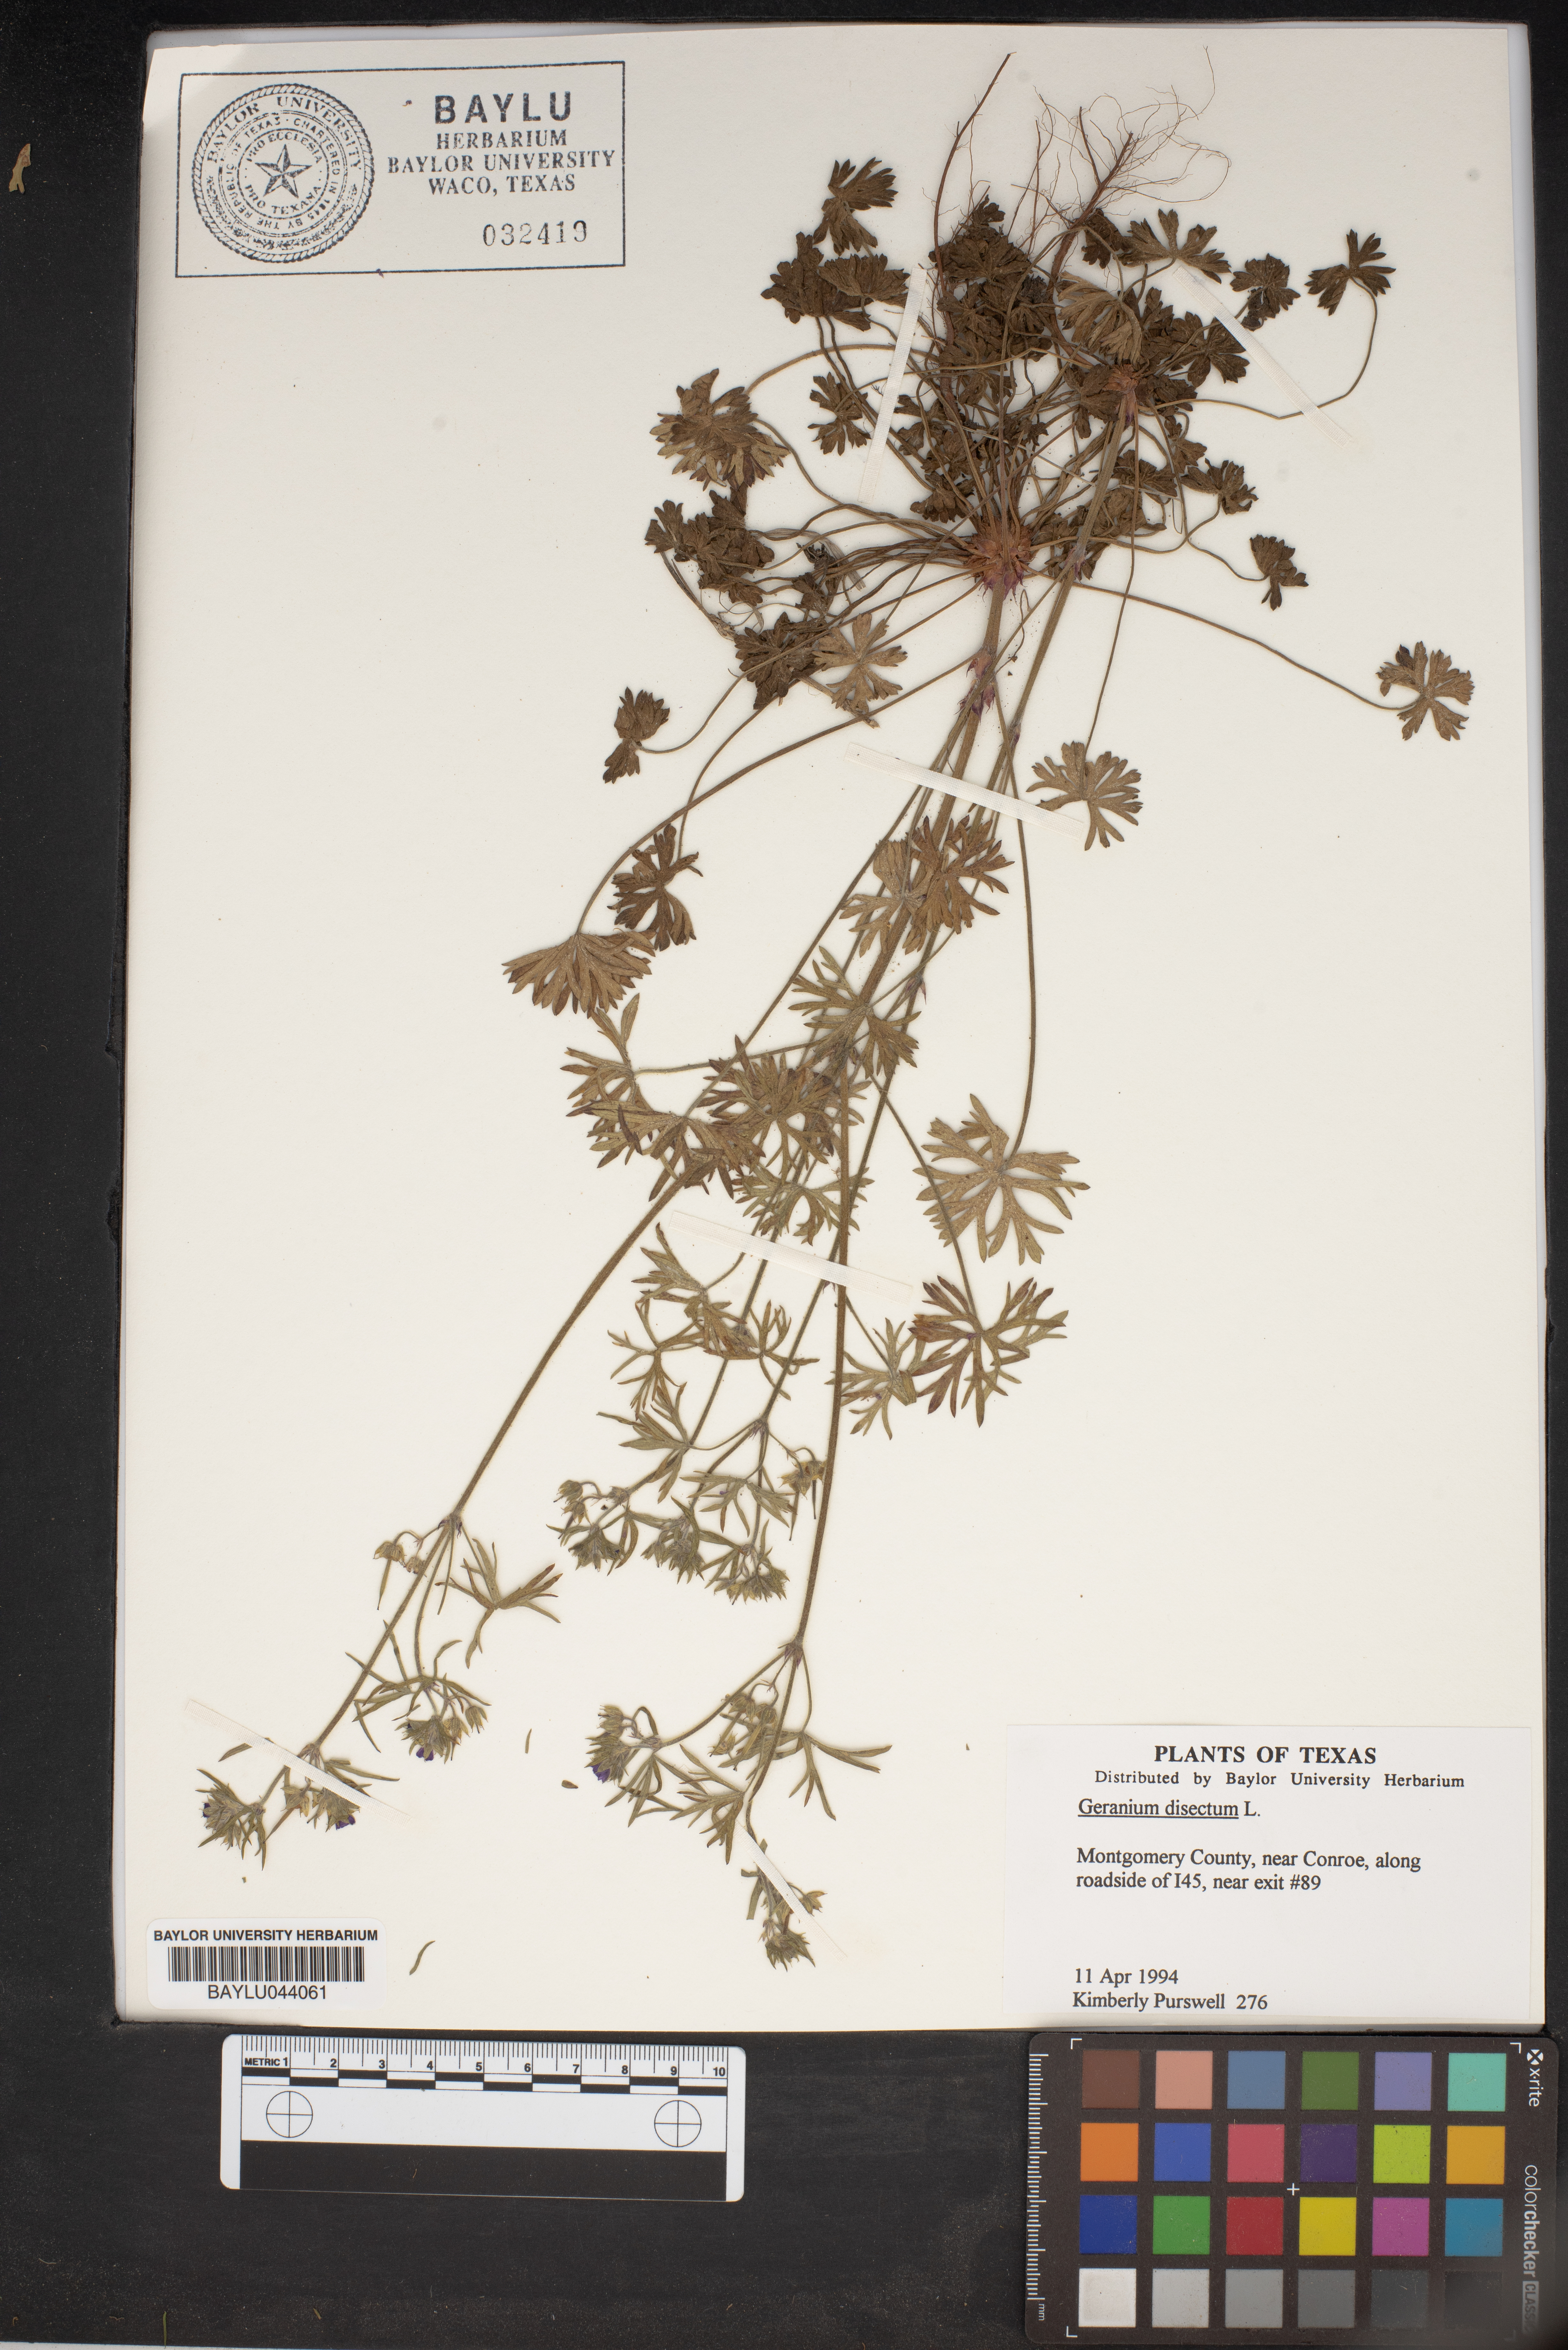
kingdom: Plantae
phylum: Tracheophyta
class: Magnoliopsida
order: Geraniales
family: Geraniaceae
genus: Geranium
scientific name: Geranium dissectum
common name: Cut-leaved crane's-bill
